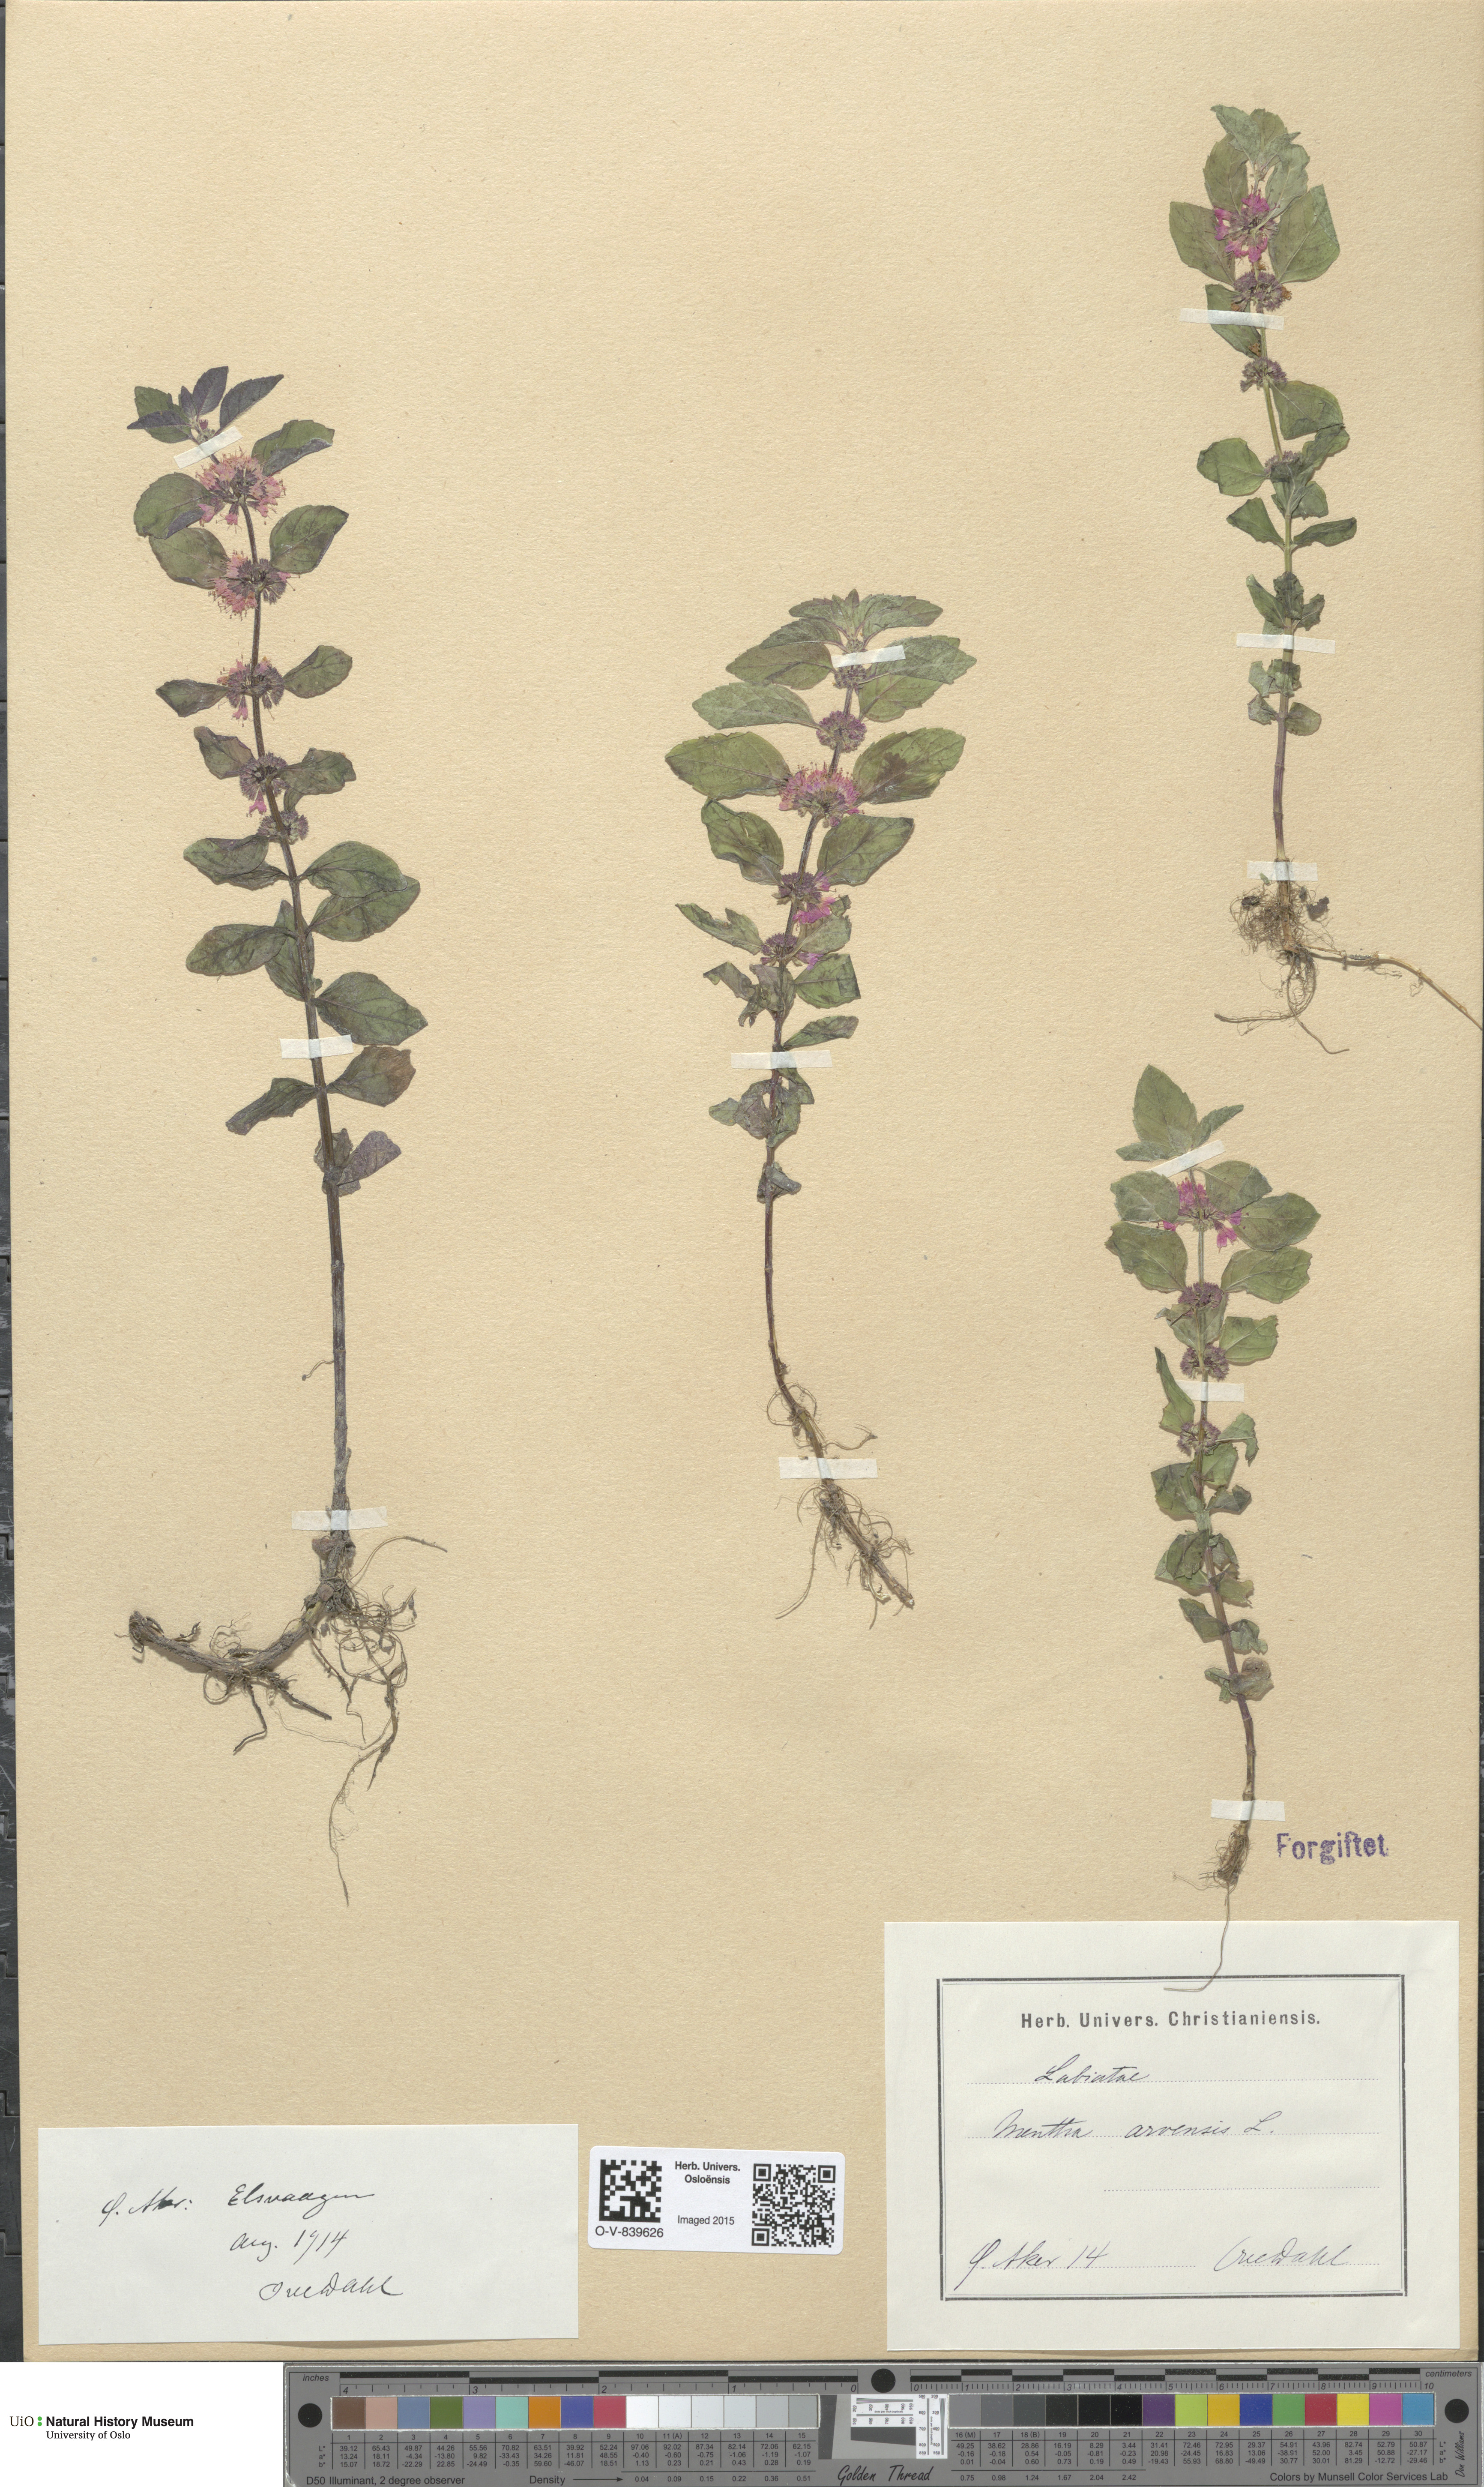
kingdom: Plantae
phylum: Tracheophyta
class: Magnoliopsida
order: Lamiales
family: Lamiaceae
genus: Mentha
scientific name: Mentha arvensis
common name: Corn mint
